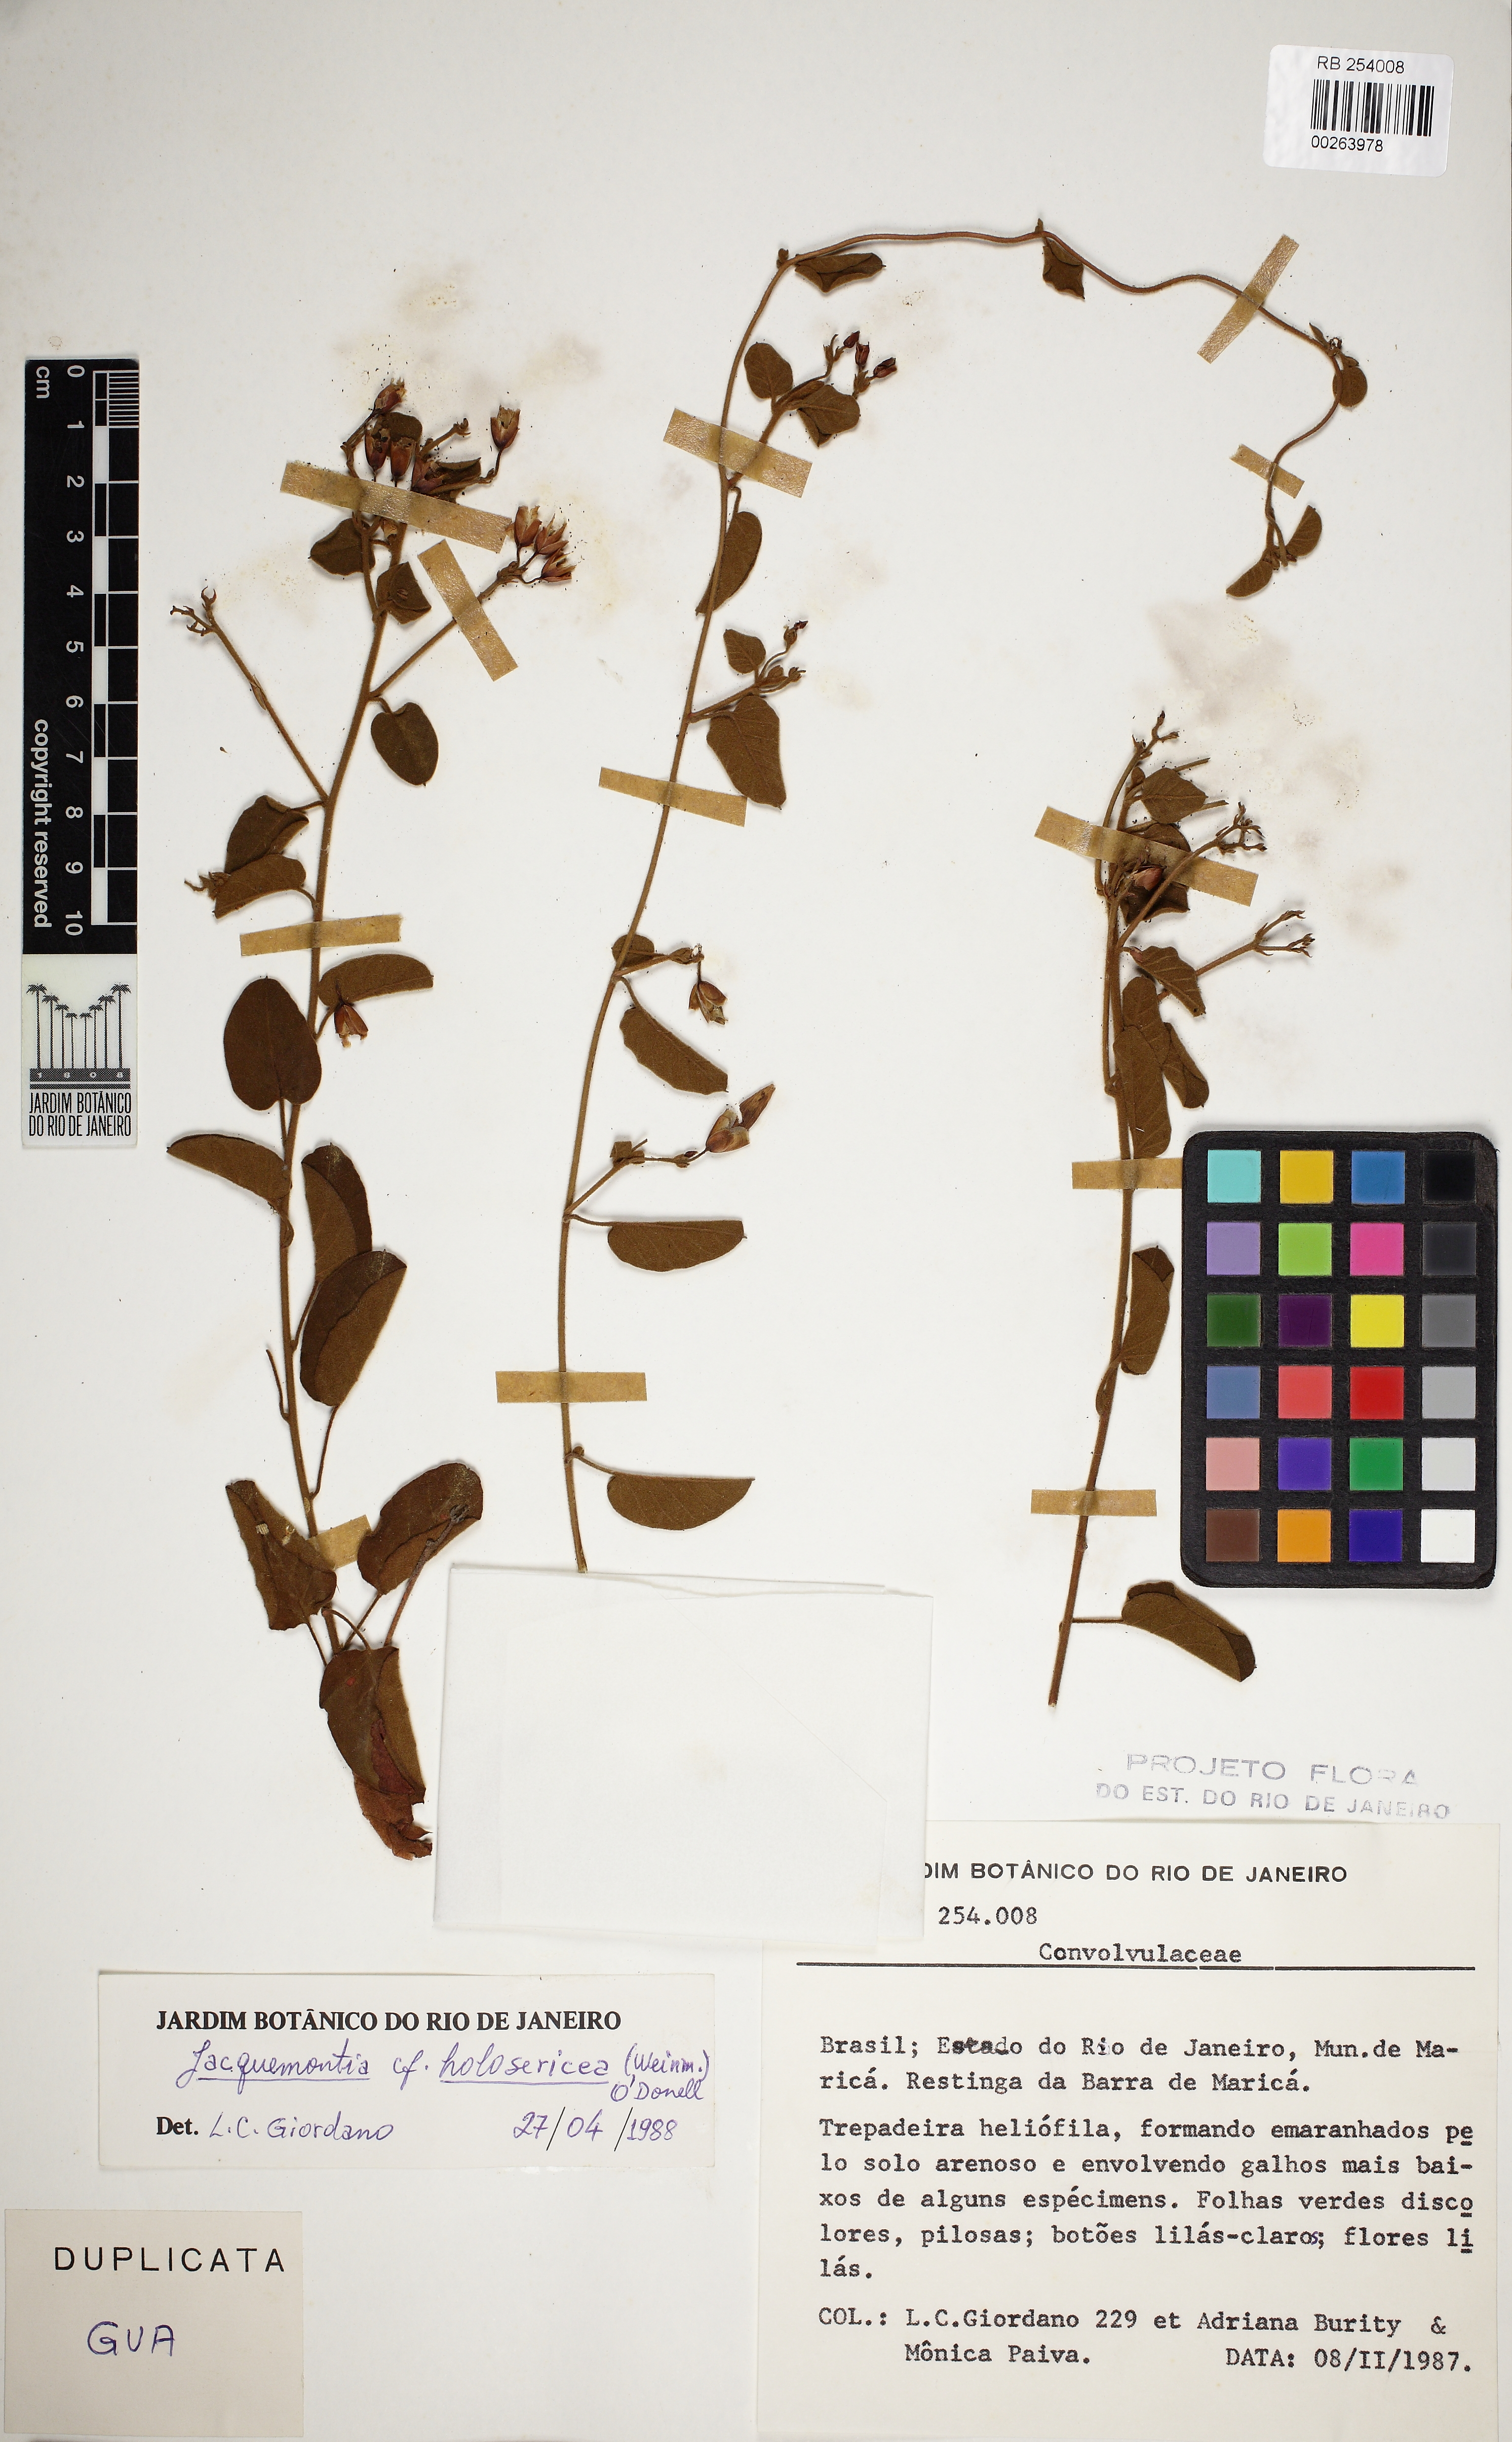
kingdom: Plantae
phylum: Tracheophyta
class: Magnoliopsida
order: Solanales
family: Convolvulaceae
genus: Jacquemontia
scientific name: Jacquemontia holosericea
